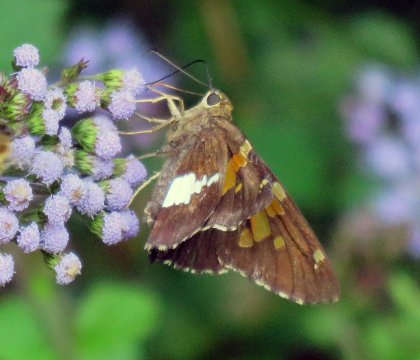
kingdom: Animalia
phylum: Arthropoda
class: Insecta
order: Lepidoptera
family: Hesperiidae
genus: Epargyreus
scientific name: Epargyreus clarus
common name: Silver-spotted Skipper
